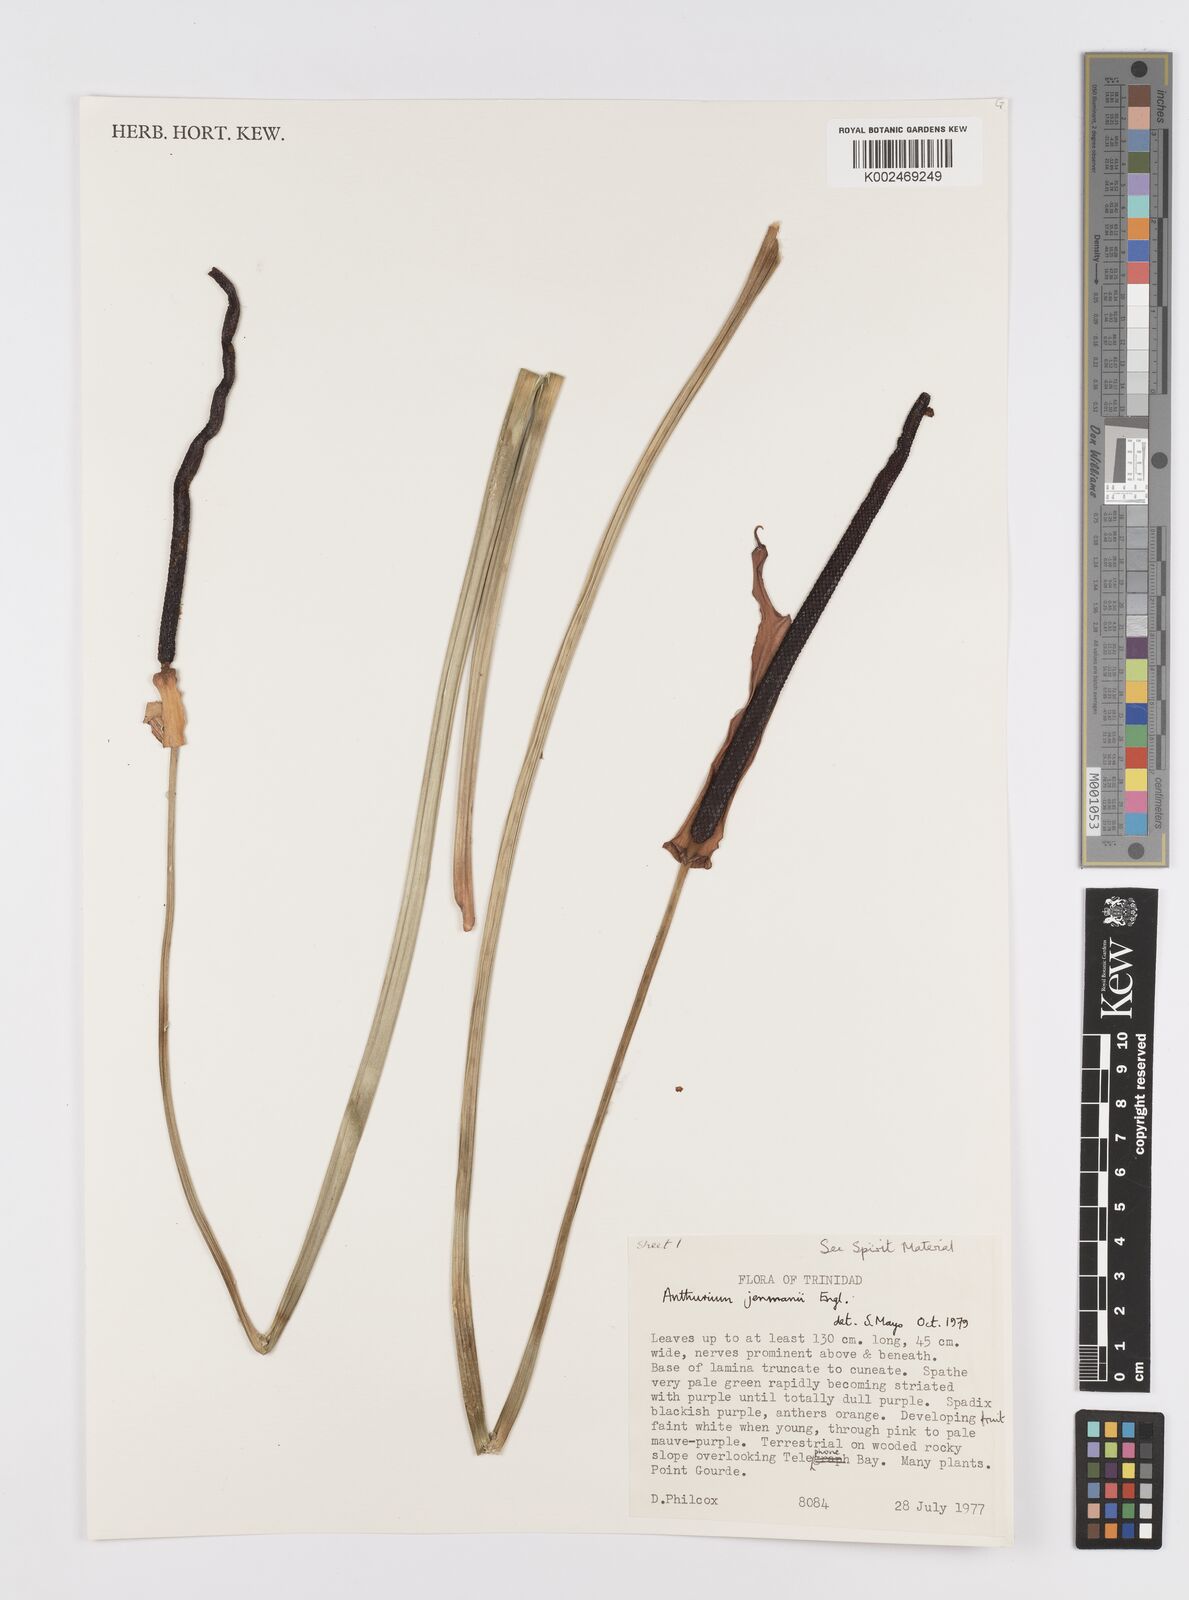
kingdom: Plantae
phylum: Tracheophyta
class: Liliopsida
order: Alismatales
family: Araceae
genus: Anthurium
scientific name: Anthurium jenmanii
